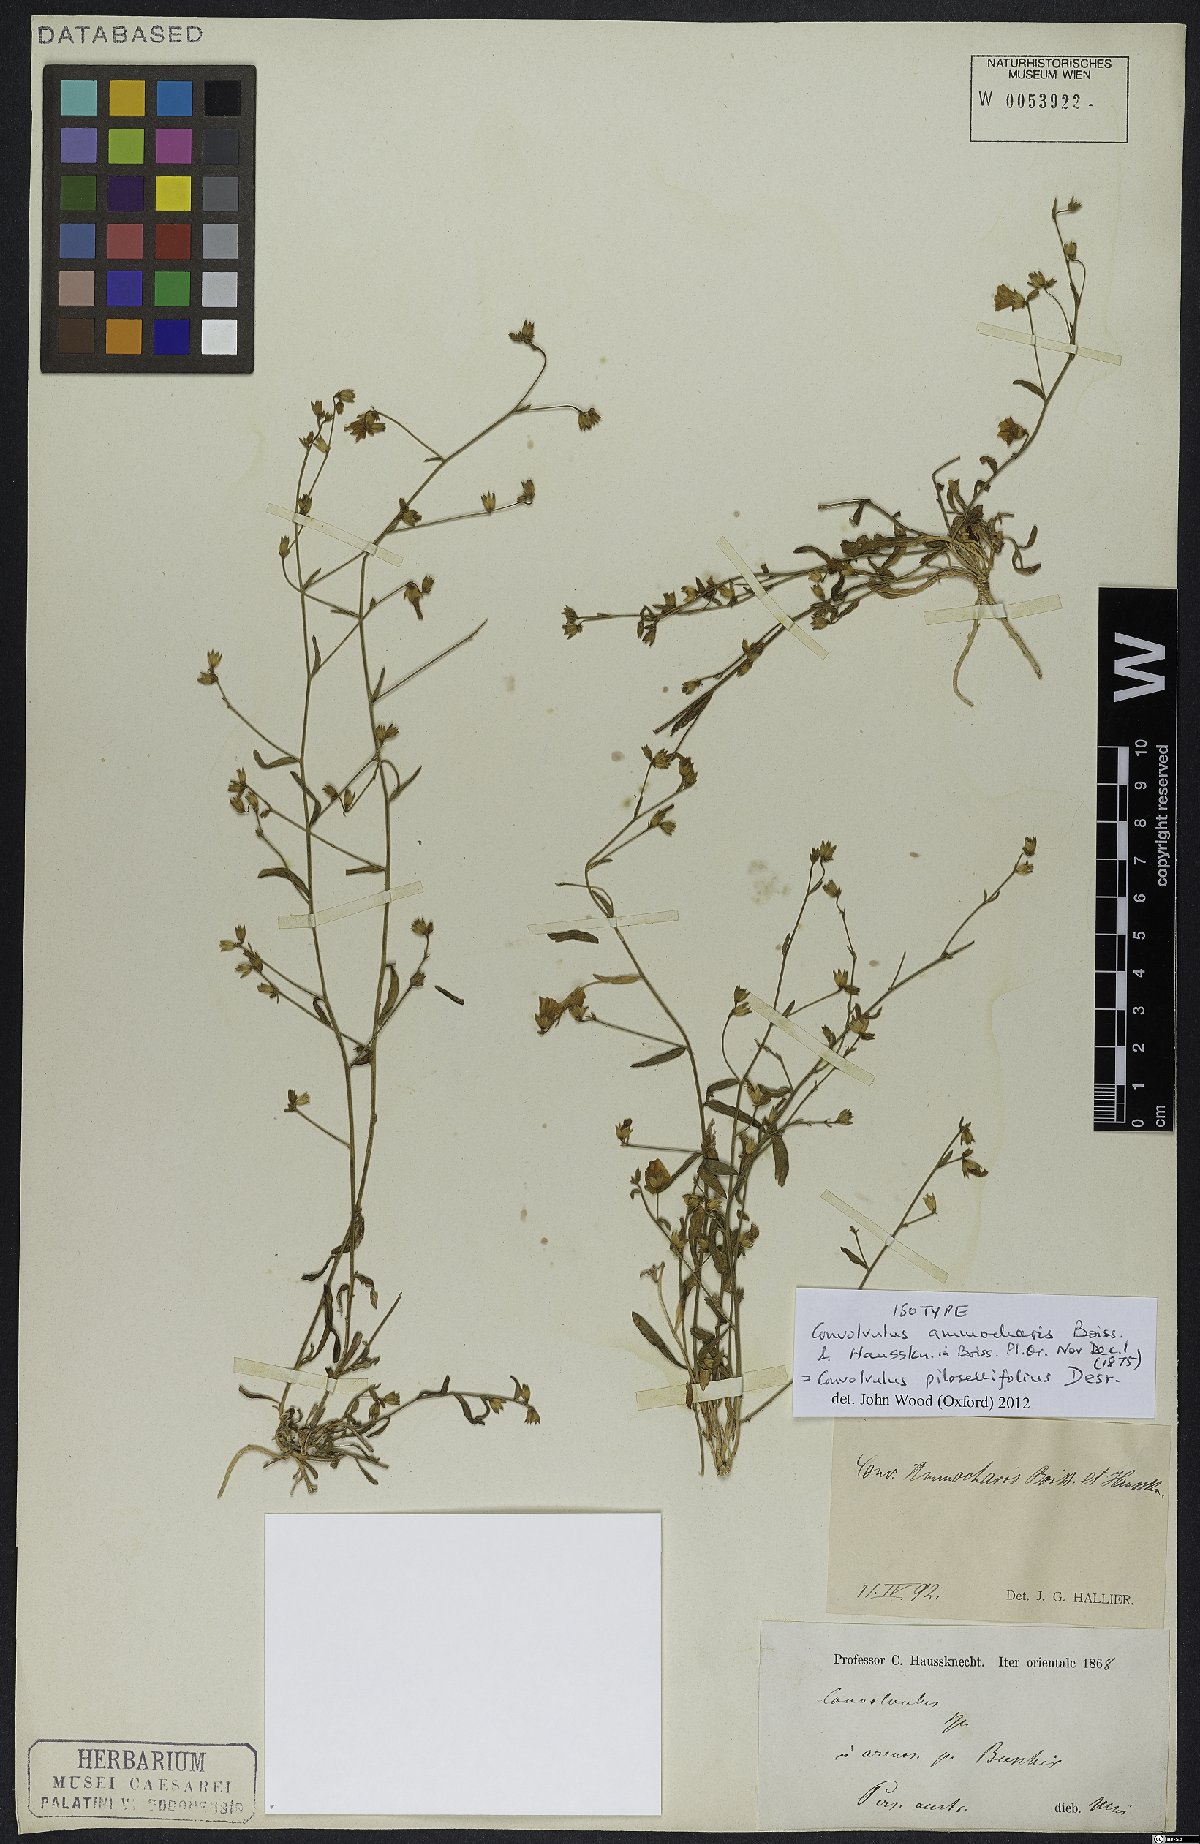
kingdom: Plantae
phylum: Tracheophyta
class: Magnoliopsida
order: Solanales
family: Convolvulaceae
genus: Convolvulus
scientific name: Convolvulus pilosellifolius
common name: Soft bindweed
